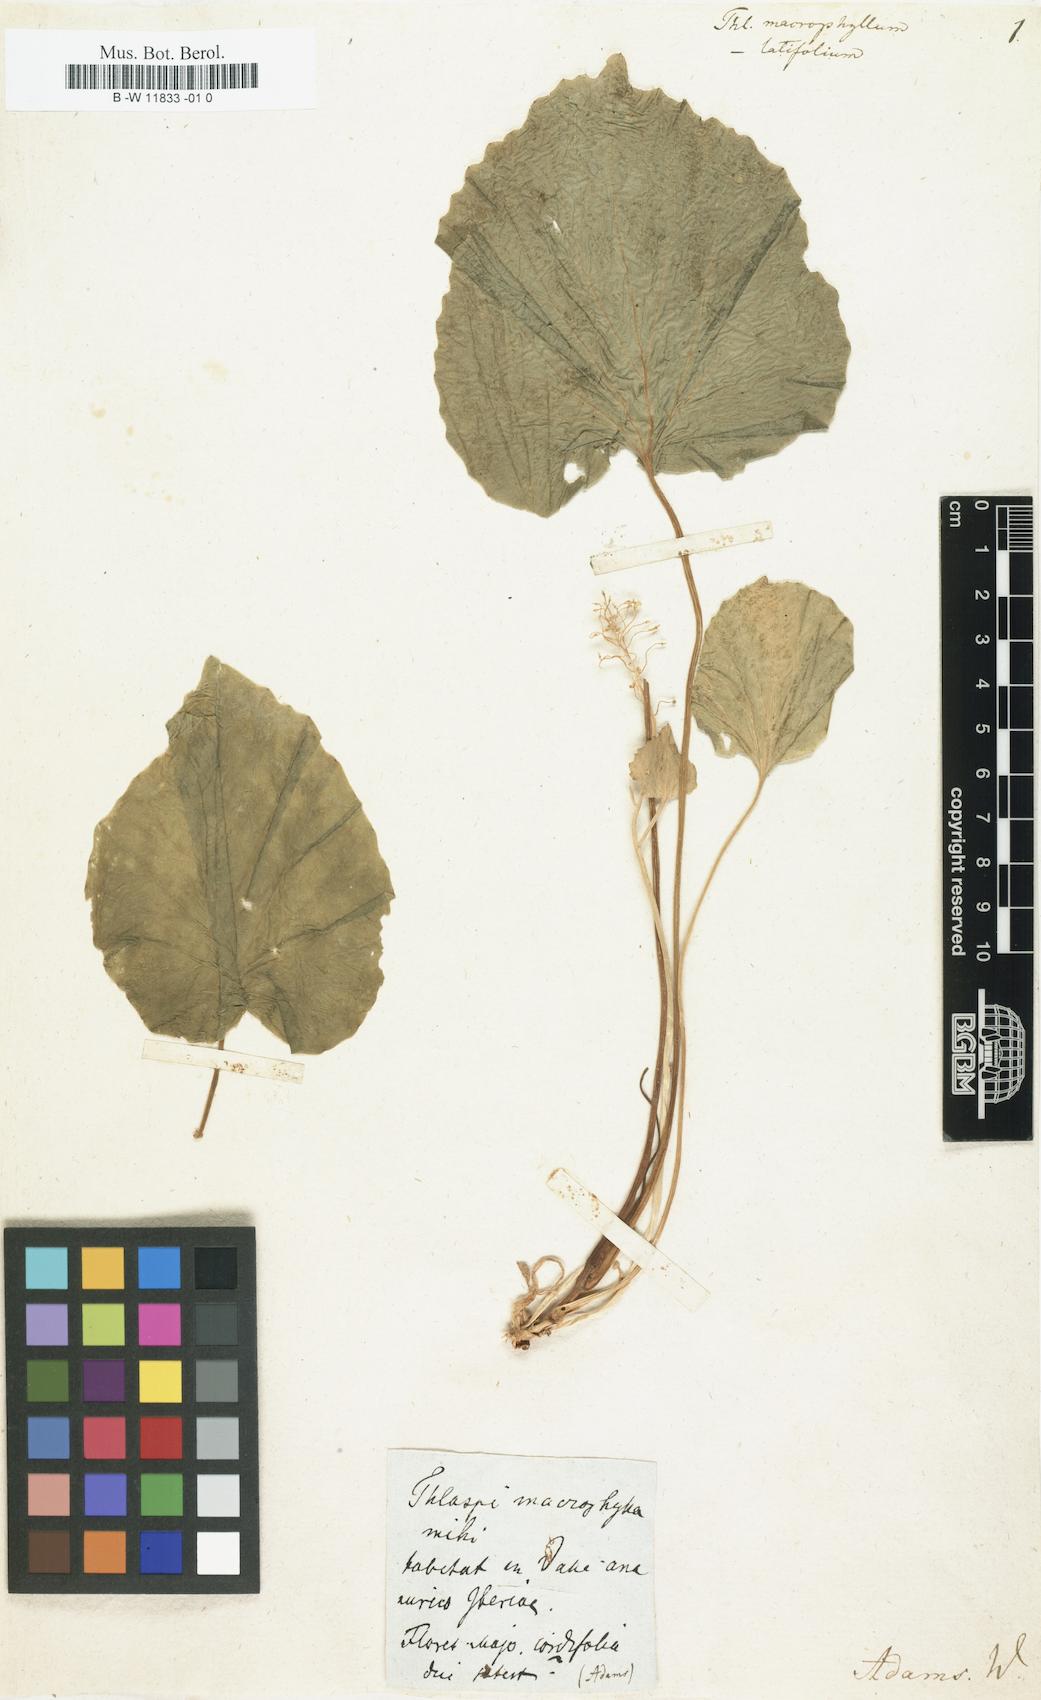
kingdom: Plantae
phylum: Tracheophyta
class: Magnoliopsida
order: Brassicales
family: Brassicaceae
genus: Pachyphragma
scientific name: Pachyphragma macrophyllum
